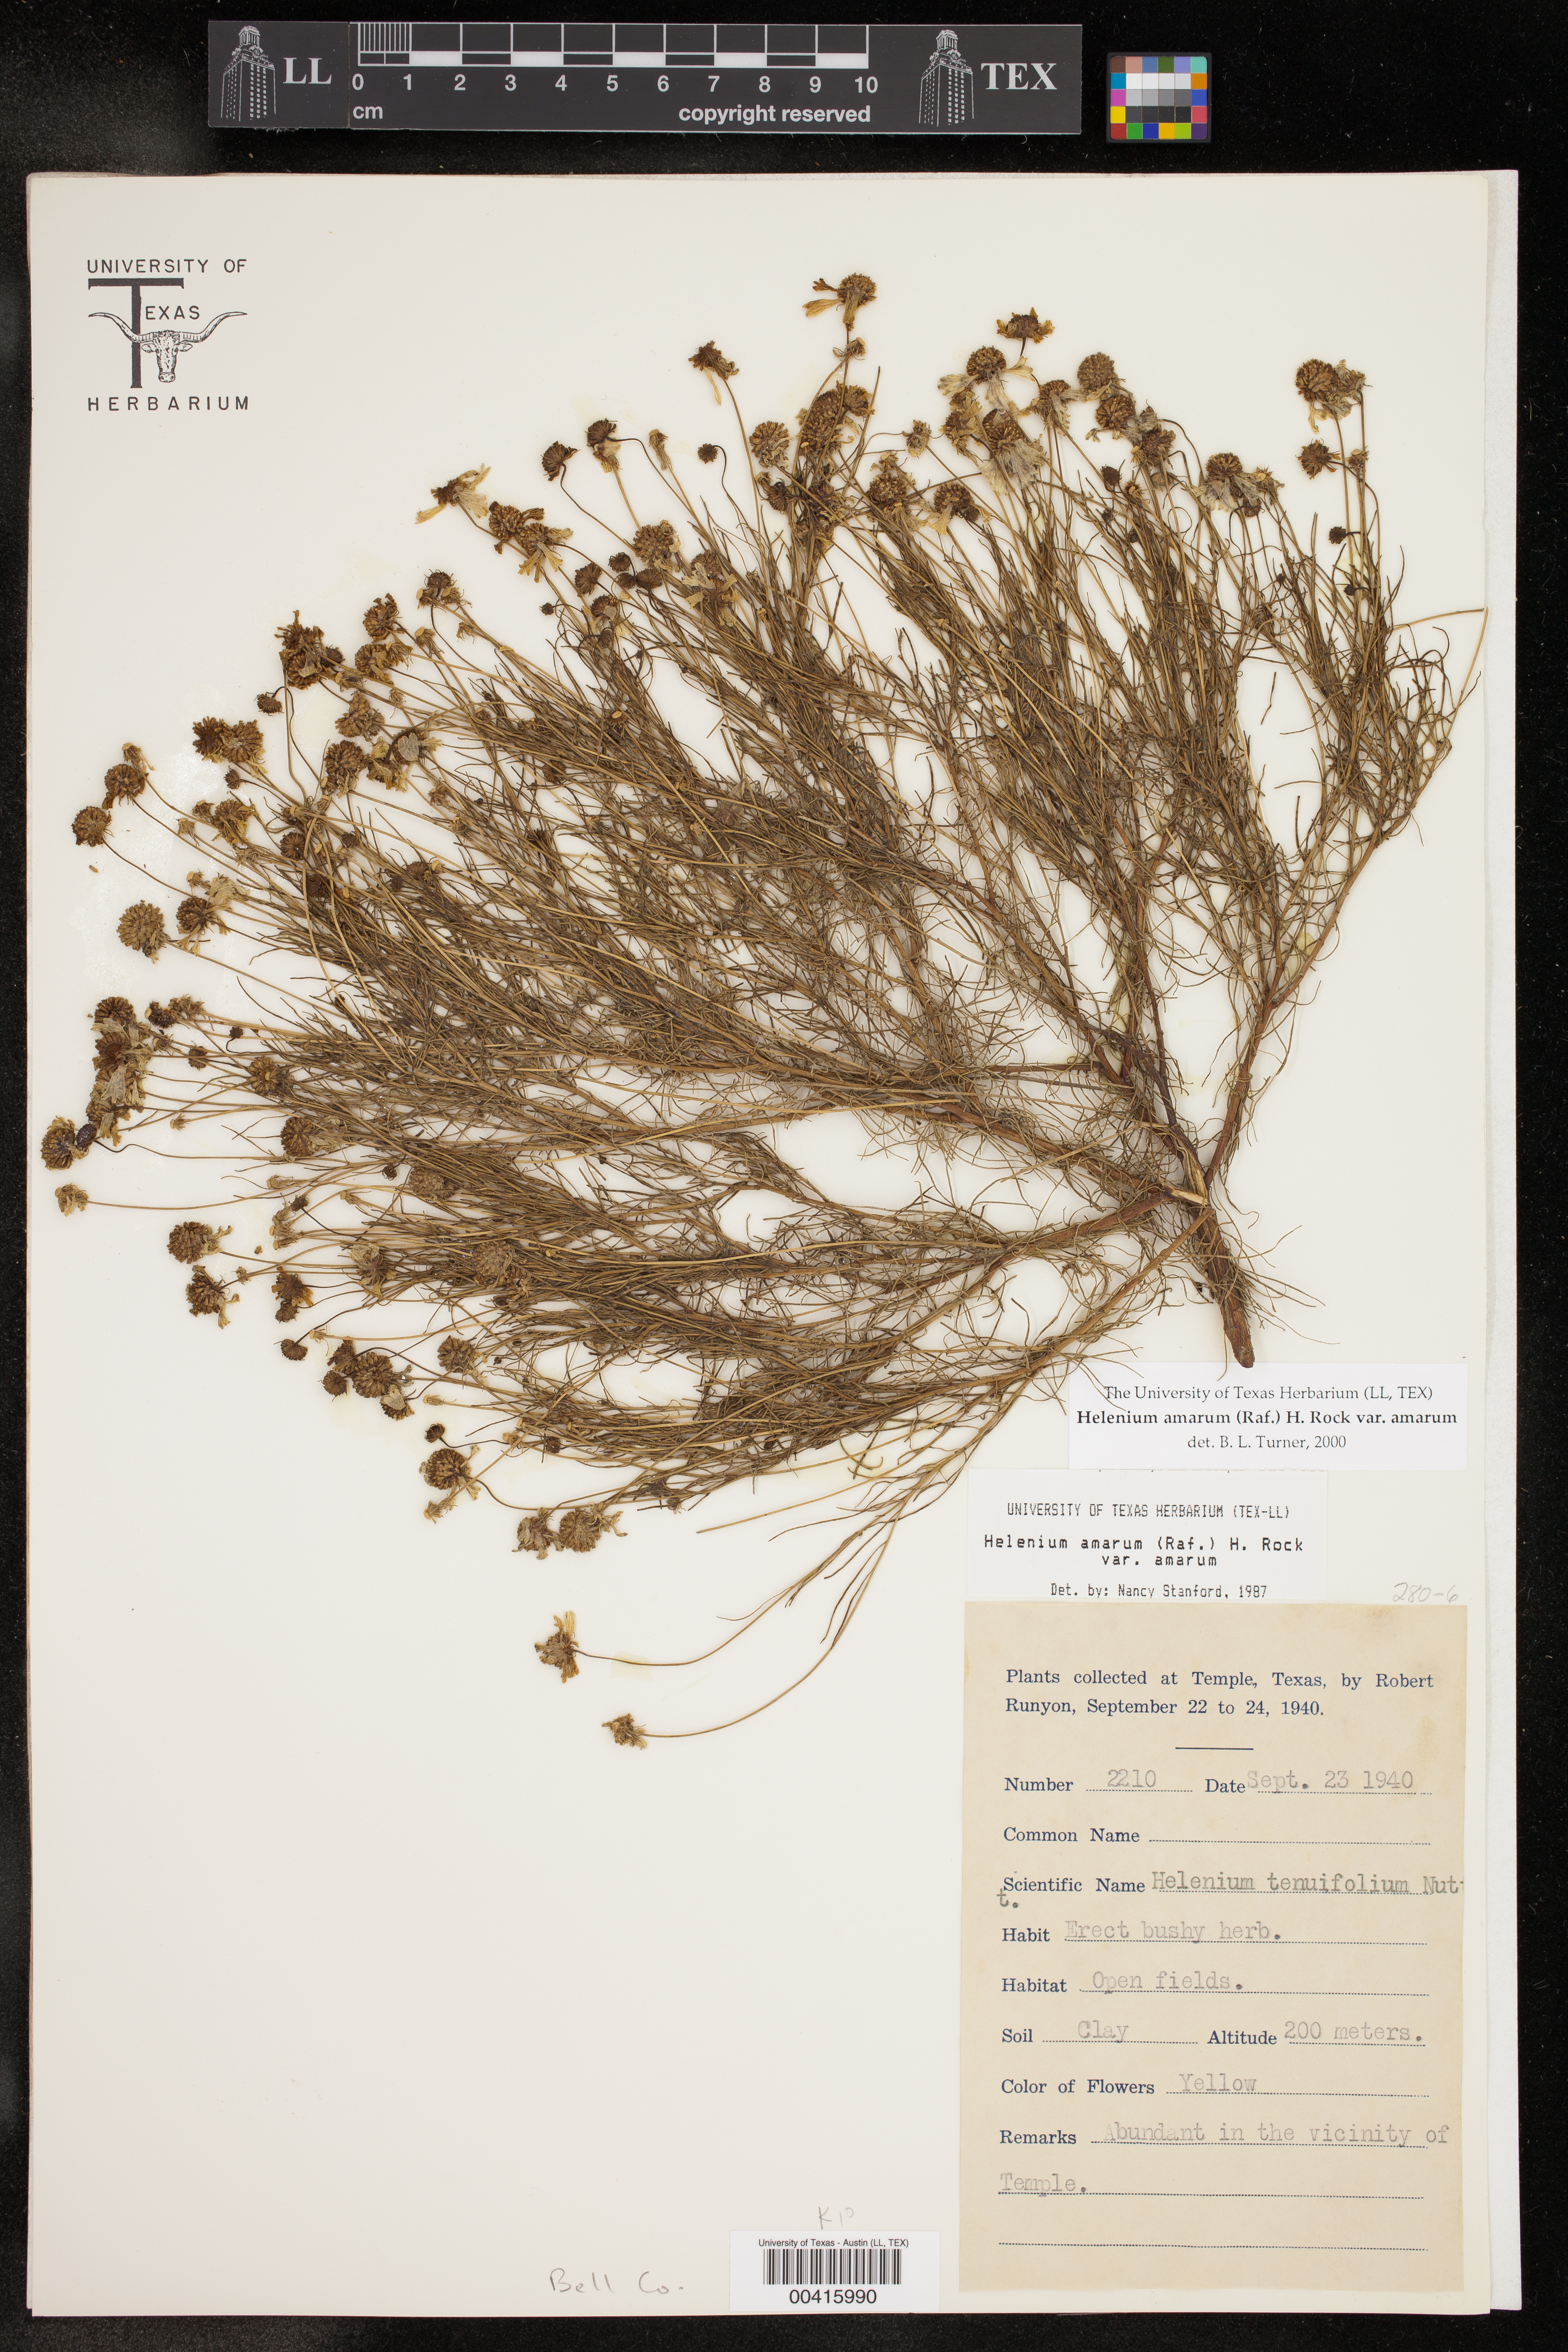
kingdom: Plantae
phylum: Tracheophyta
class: Magnoliopsida
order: Asterales
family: Asteraceae
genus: Helenium
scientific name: Helenium amarum
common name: Bitter sneezeweed
